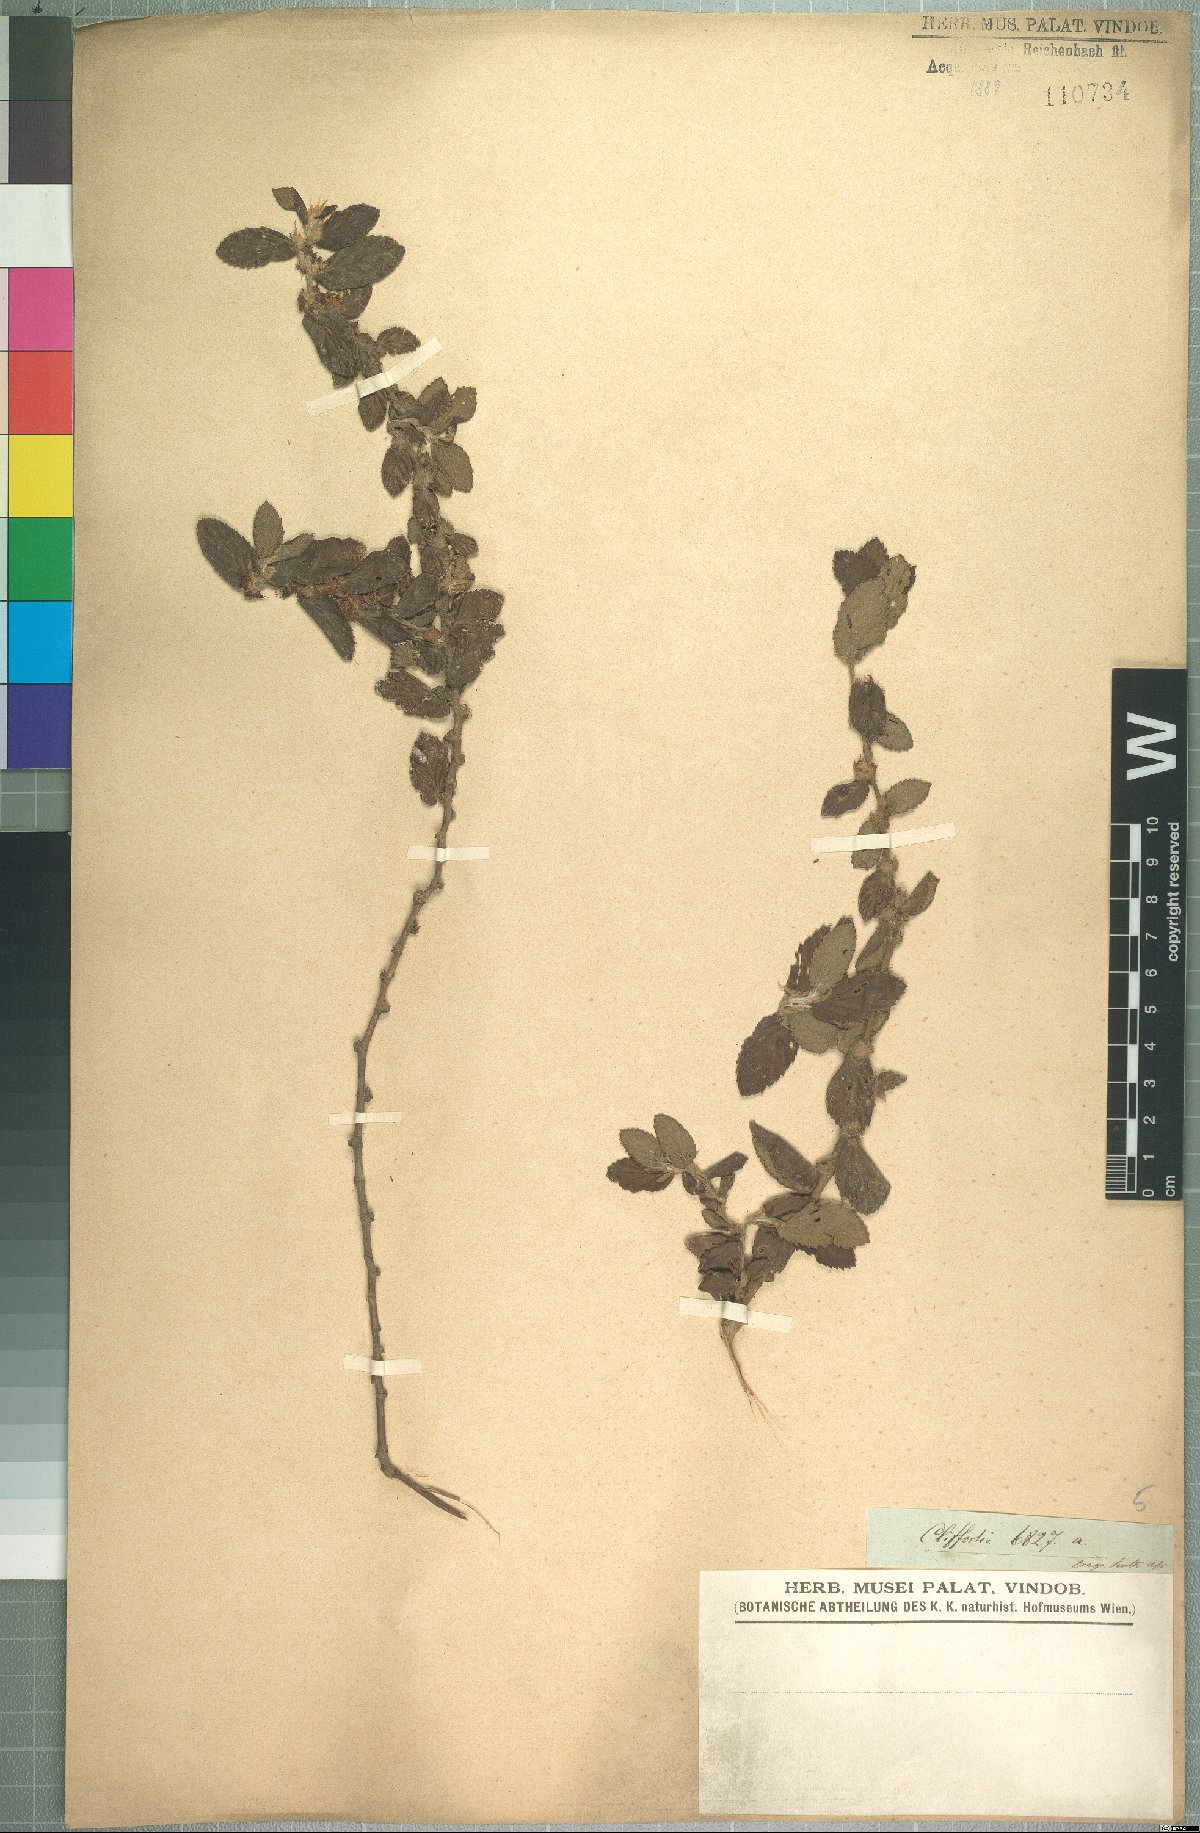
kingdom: Plantae
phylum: Tracheophyta
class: Magnoliopsida
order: Rosales
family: Rosaceae
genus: Cliffortia
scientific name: Cliffortia odorata
